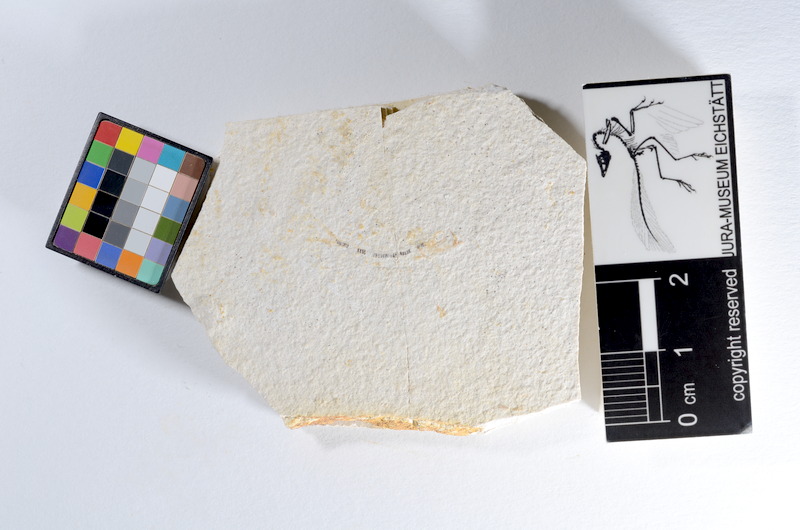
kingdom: Animalia
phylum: Chordata
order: Salmoniformes
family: Orthogonikleithridae
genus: Orthogonikleithrus
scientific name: Orthogonikleithrus hoelli
